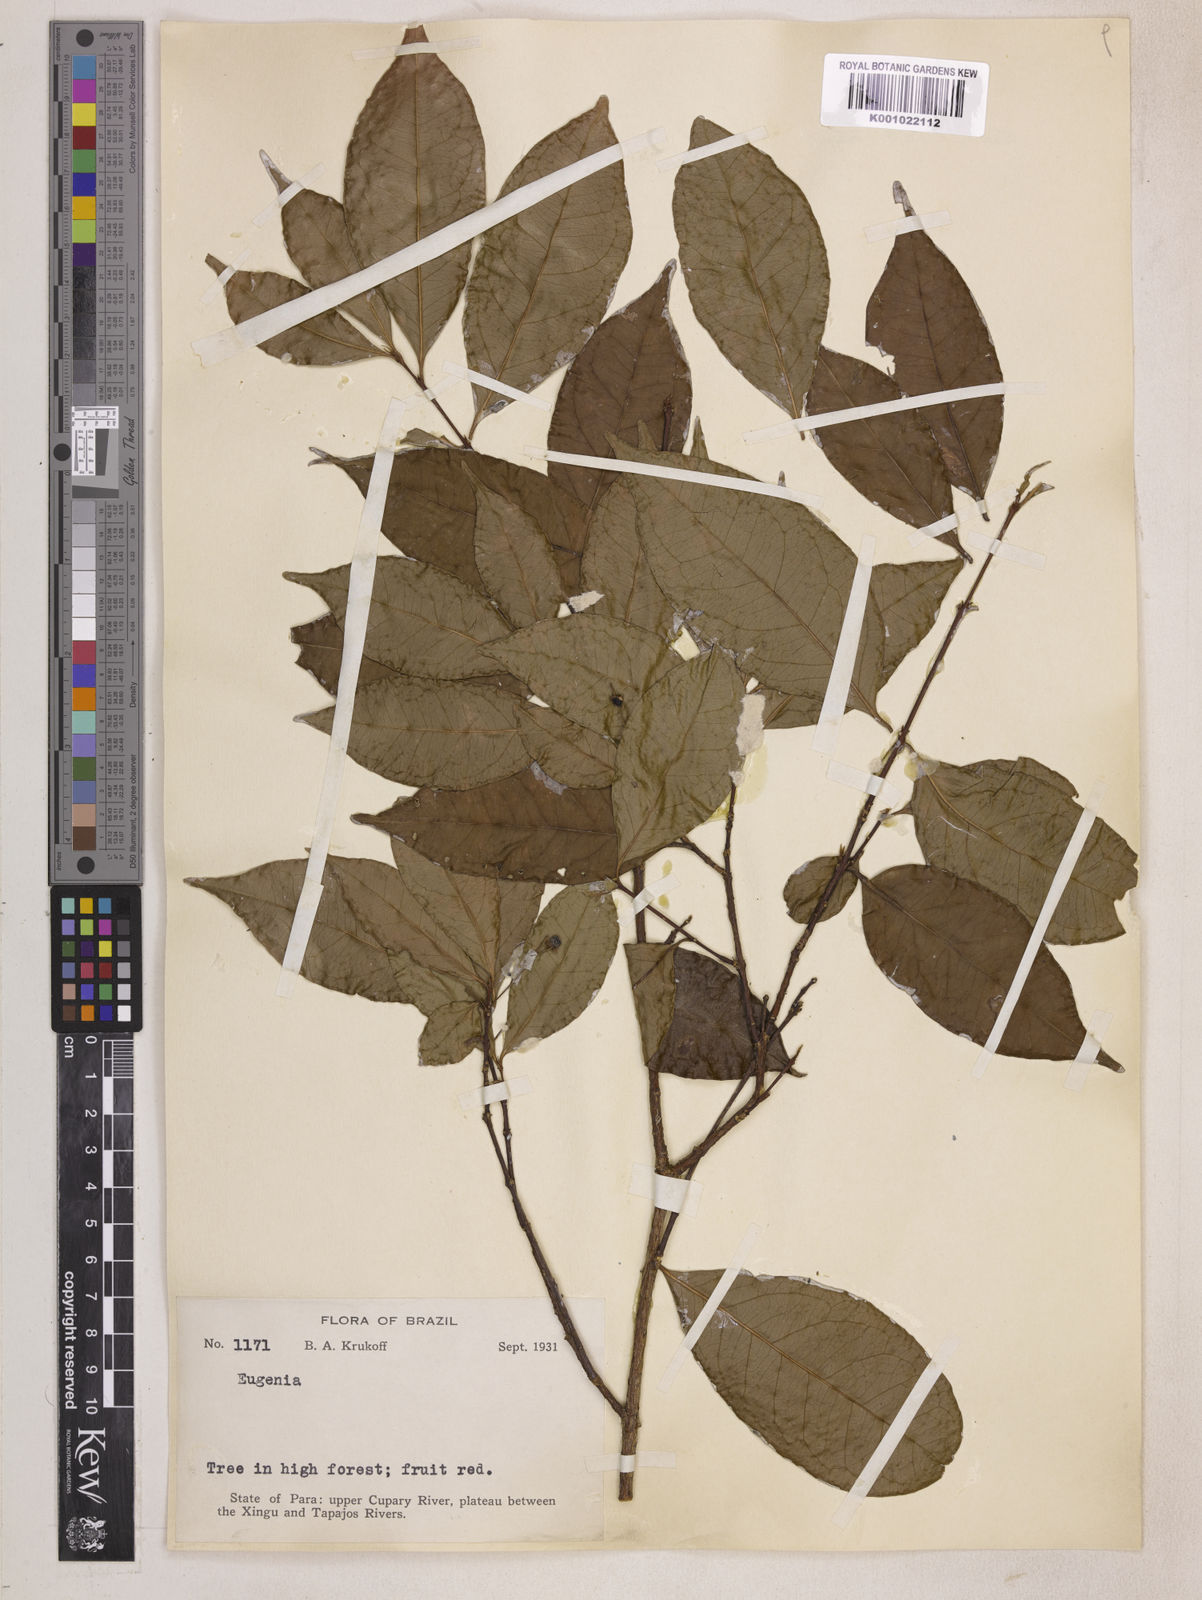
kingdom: Plantae
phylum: Tracheophyta
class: Magnoliopsida
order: Myrtales
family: Myrtaceae
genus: Eugenia
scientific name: Eugenia
